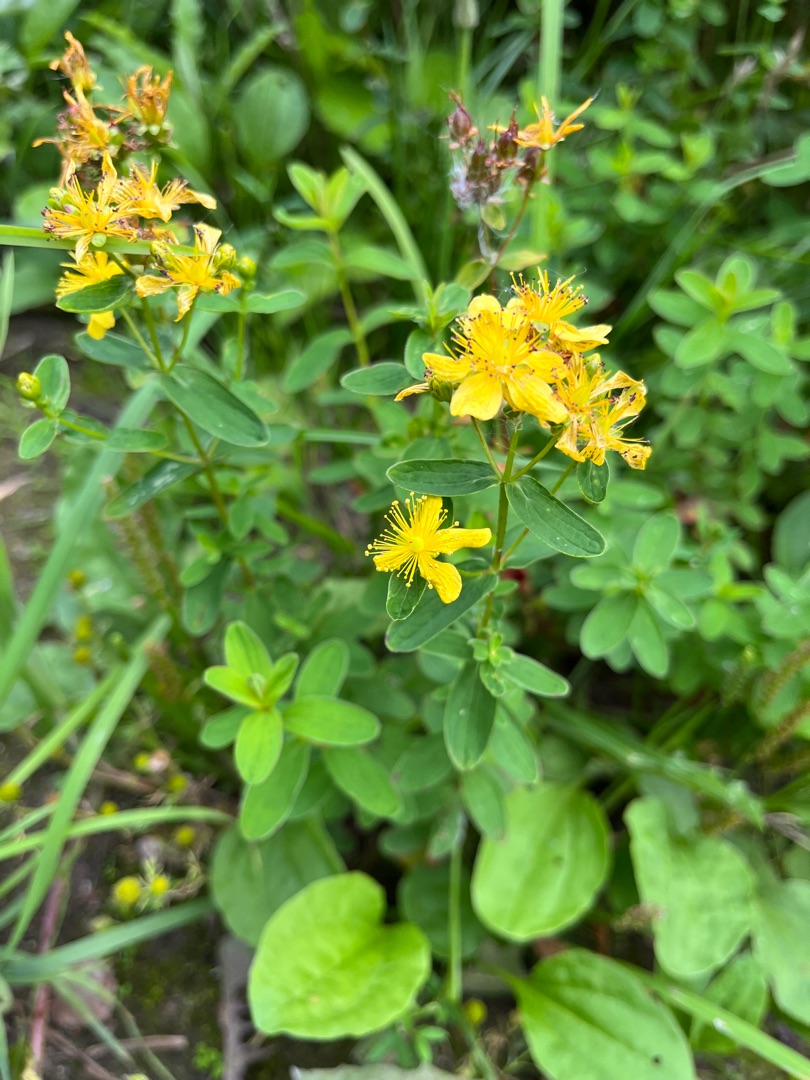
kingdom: Plantae
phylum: Tracheophyta
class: Magnoliopsida
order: Malpighiales
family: Hypericaceae
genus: Hypericum
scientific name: Hypericum maculatum
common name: Kantet perikon
